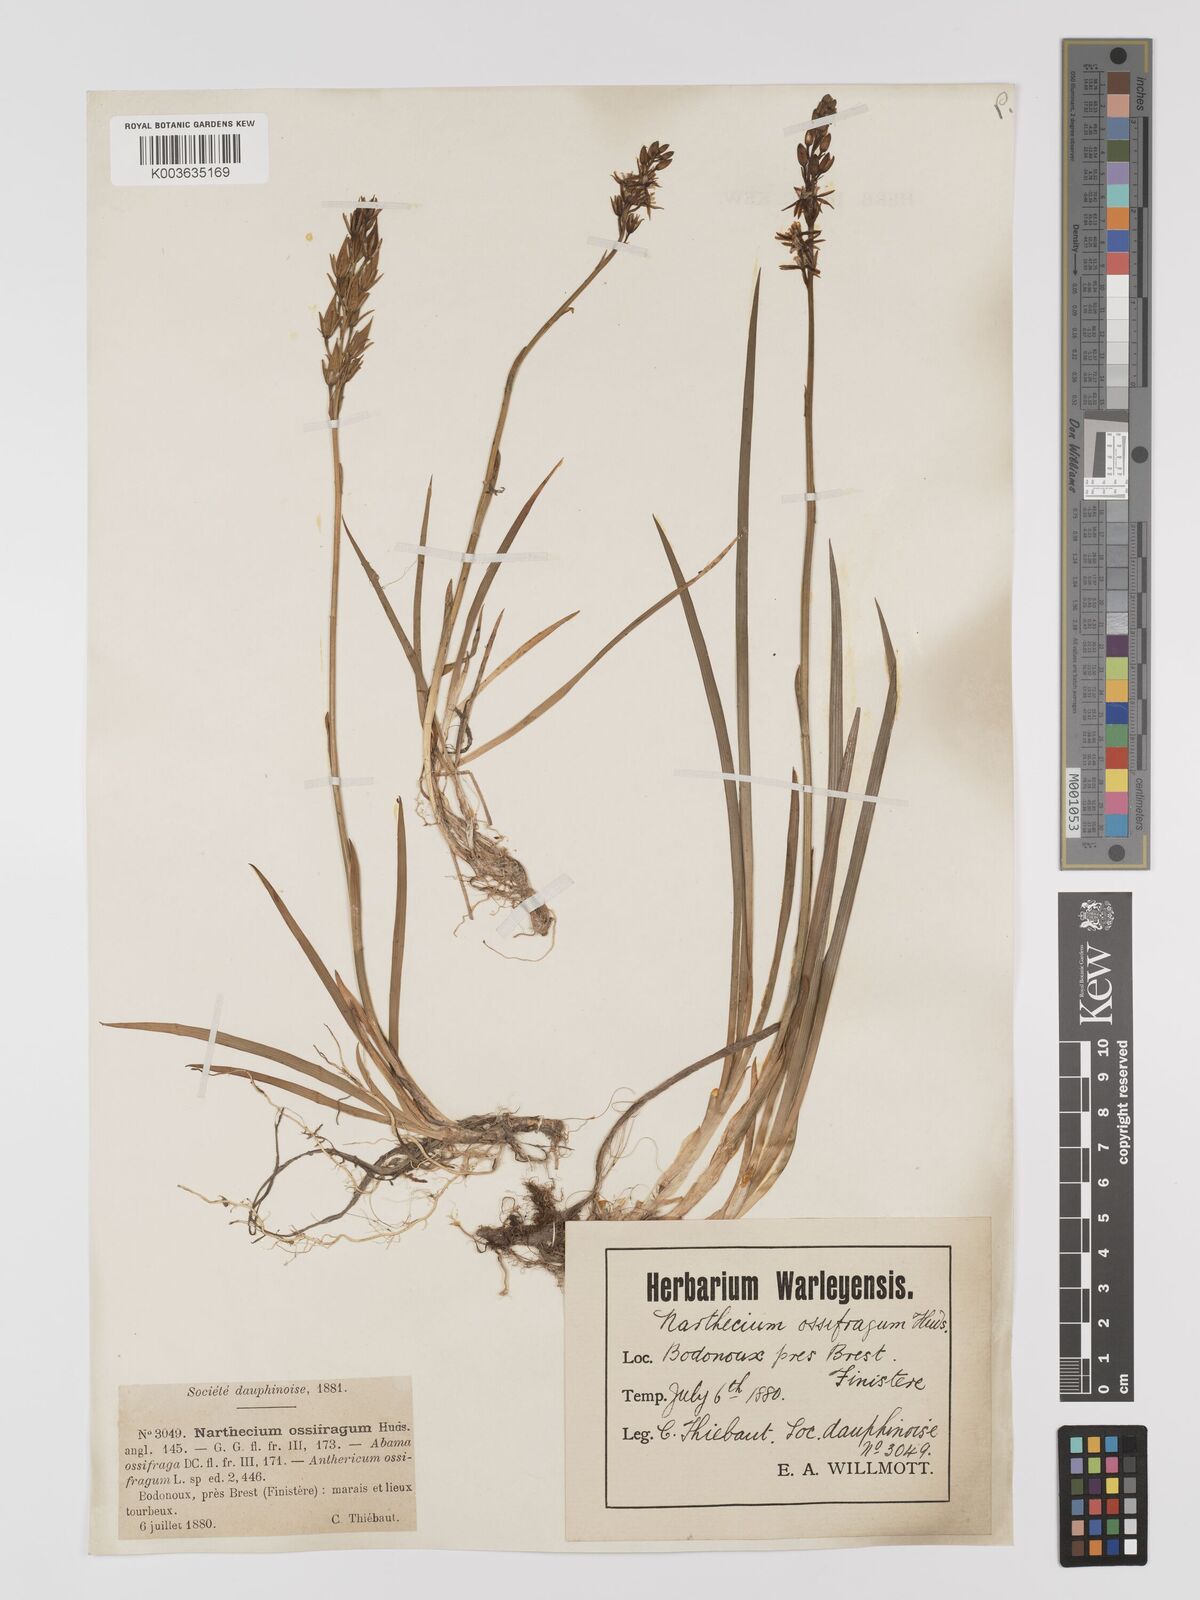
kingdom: Plantae
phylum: Tracheophyta
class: Liliopsida
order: Dioscoreales
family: Nartheciaceae
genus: Narthecium
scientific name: Narthecium ossifragum
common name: Bog asphodel
